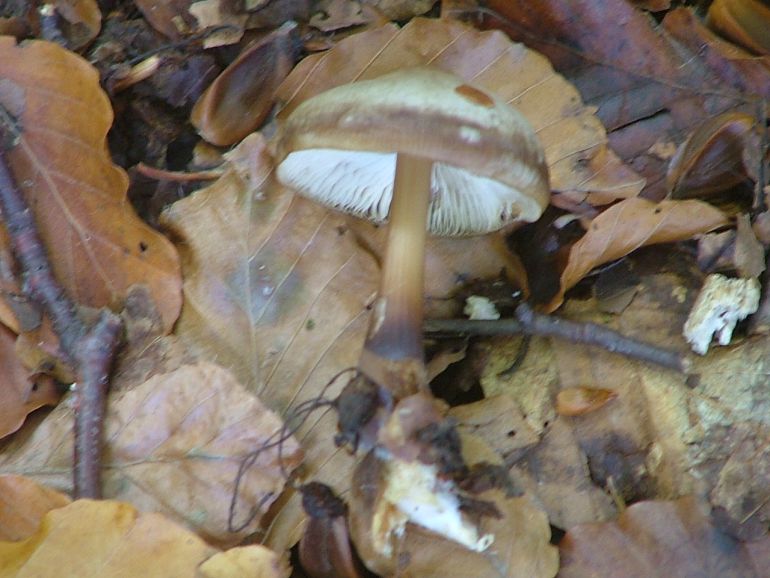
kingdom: Fungi
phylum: Basidiomycota
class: Agaricomycetes
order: Agaricales
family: Omphalotaceae
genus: Rhodocollybia
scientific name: Rhodocollybia asema
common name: horngrå fladhat
